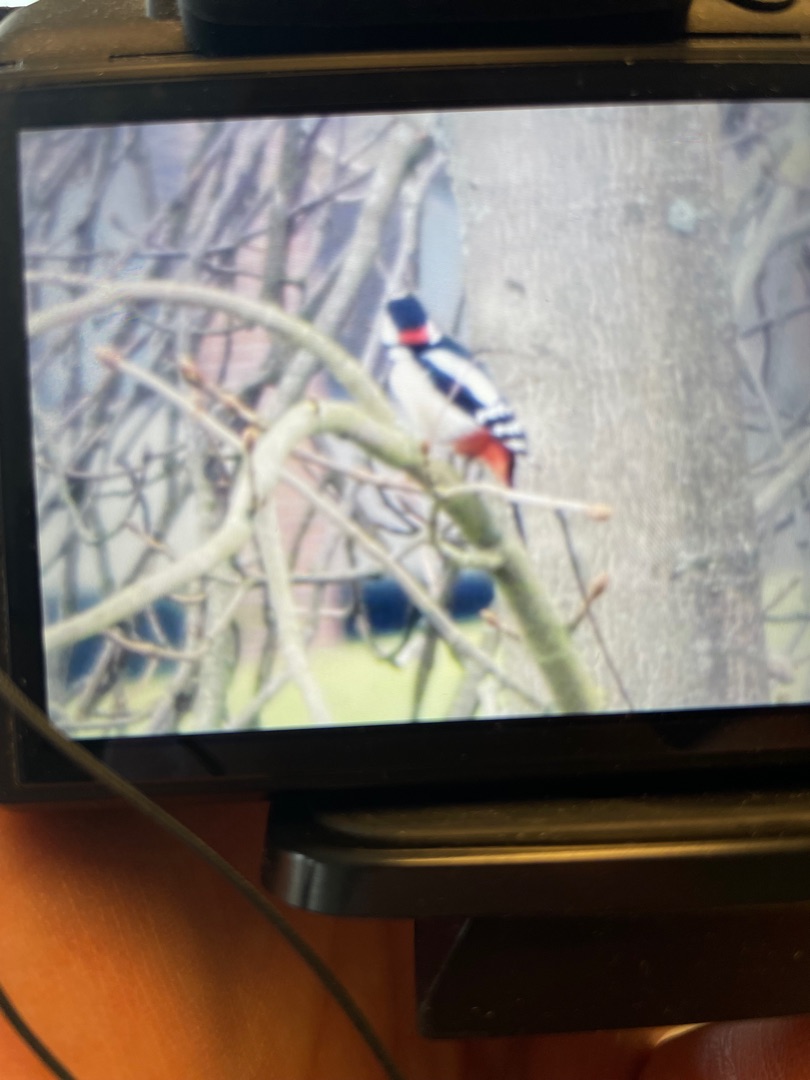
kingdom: Animalia
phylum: Chordata
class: Aves
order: Piciformes
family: Picidae
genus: Dendrocopos
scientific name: Dendrocopos major
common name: Stor flagspætte
